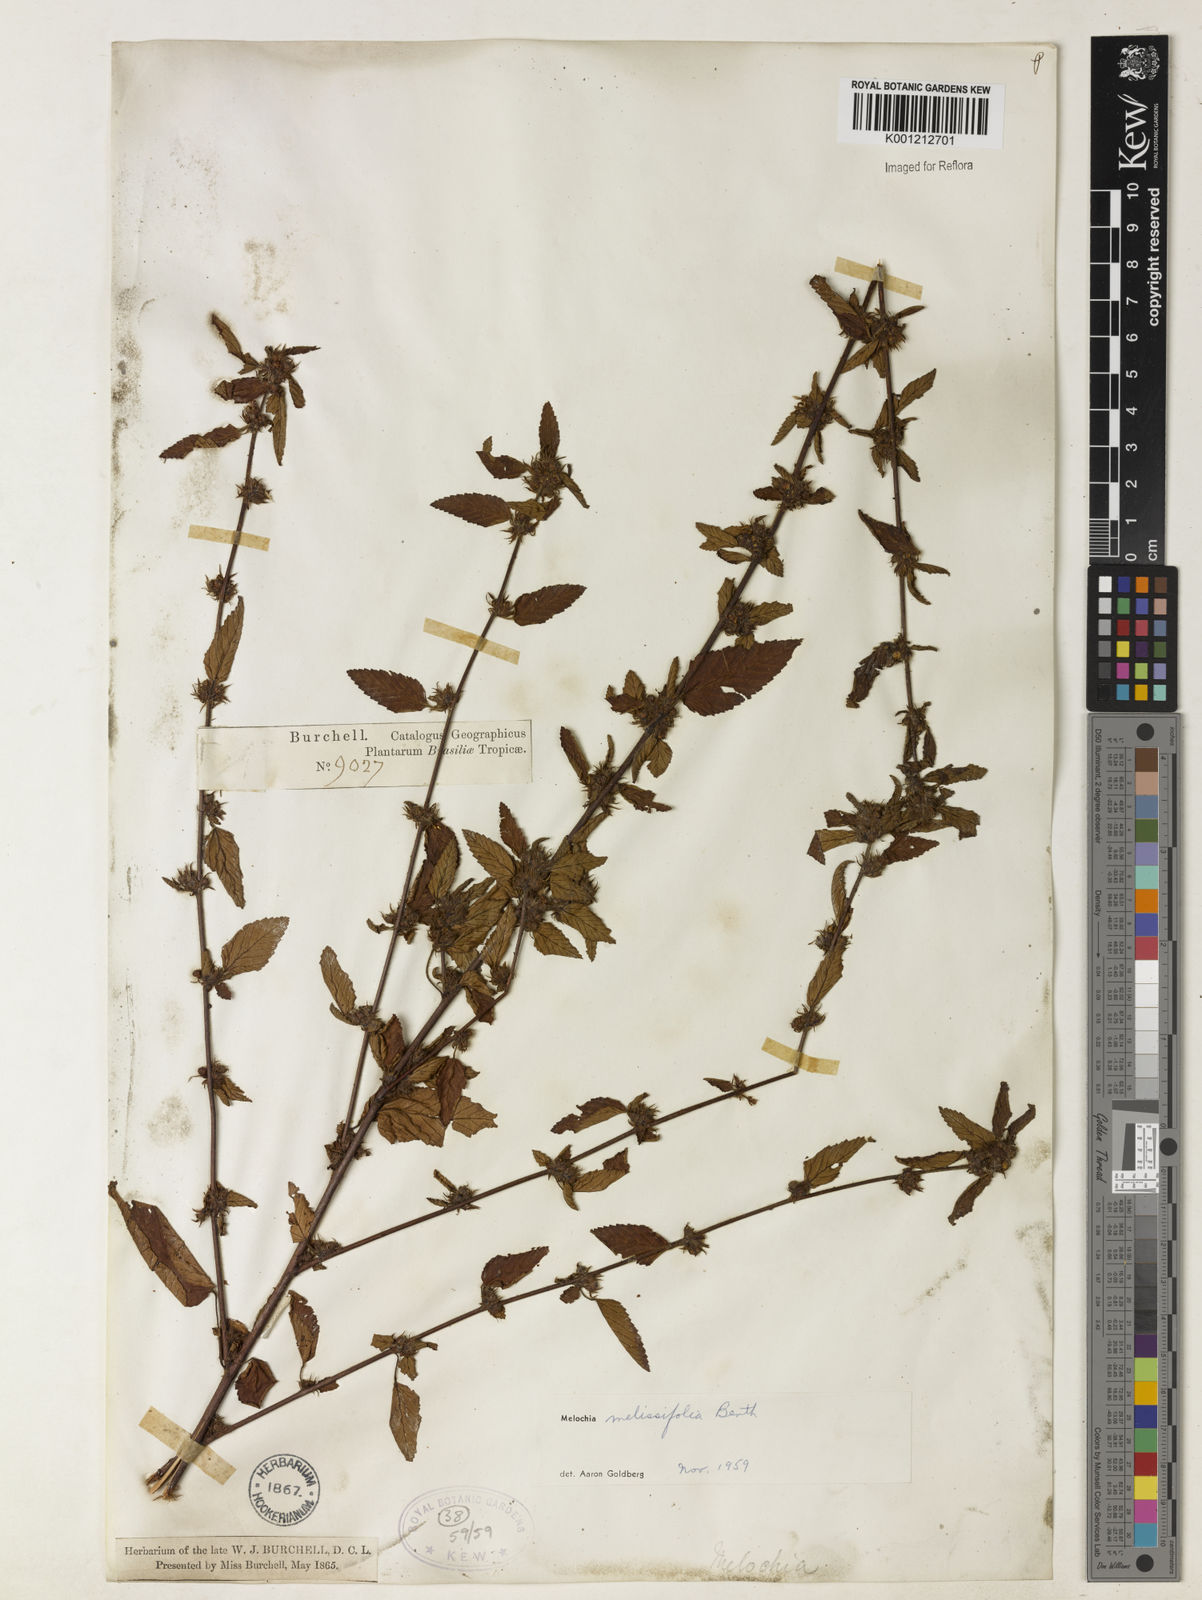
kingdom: Plantae
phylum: Tracheophyta
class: Magnoliopsida
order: Malvales
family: Malvaceae
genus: Melochia
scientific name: Melochia melissifolia
